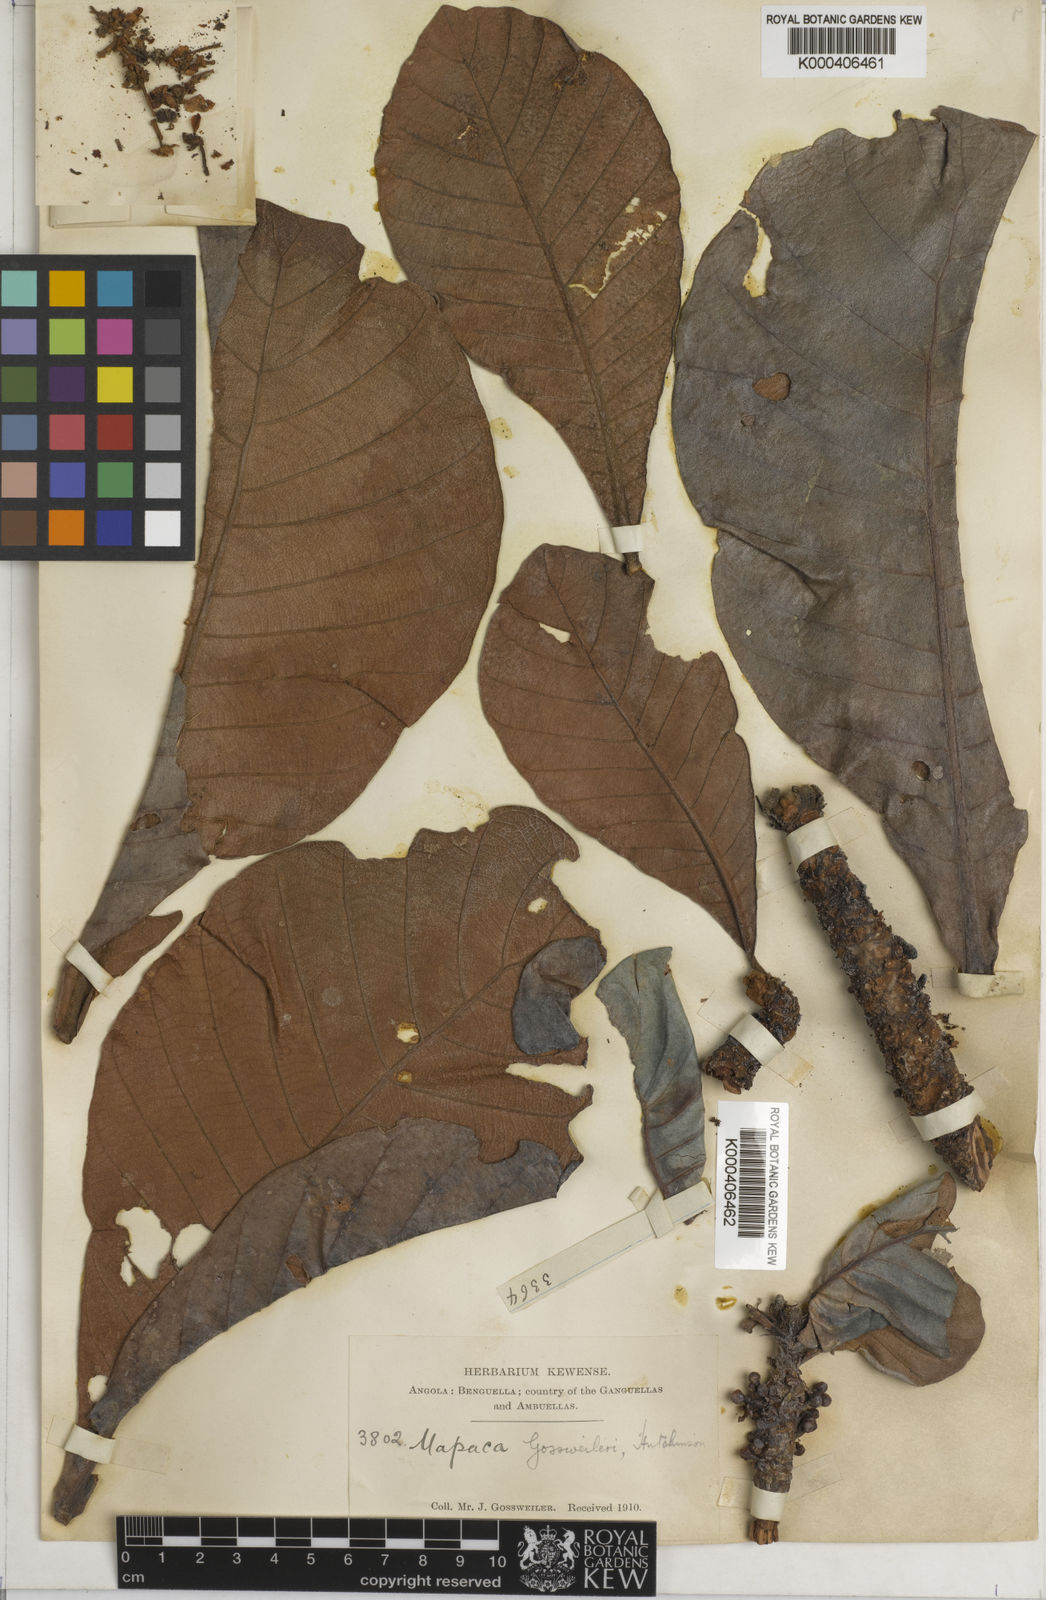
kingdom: Plantae
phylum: Tracheophyta
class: Magnoliopsida
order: Malpighiales
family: Phyllanthaceae
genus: Uapaca
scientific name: Uapaca kirkiana
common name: Wild loquat
